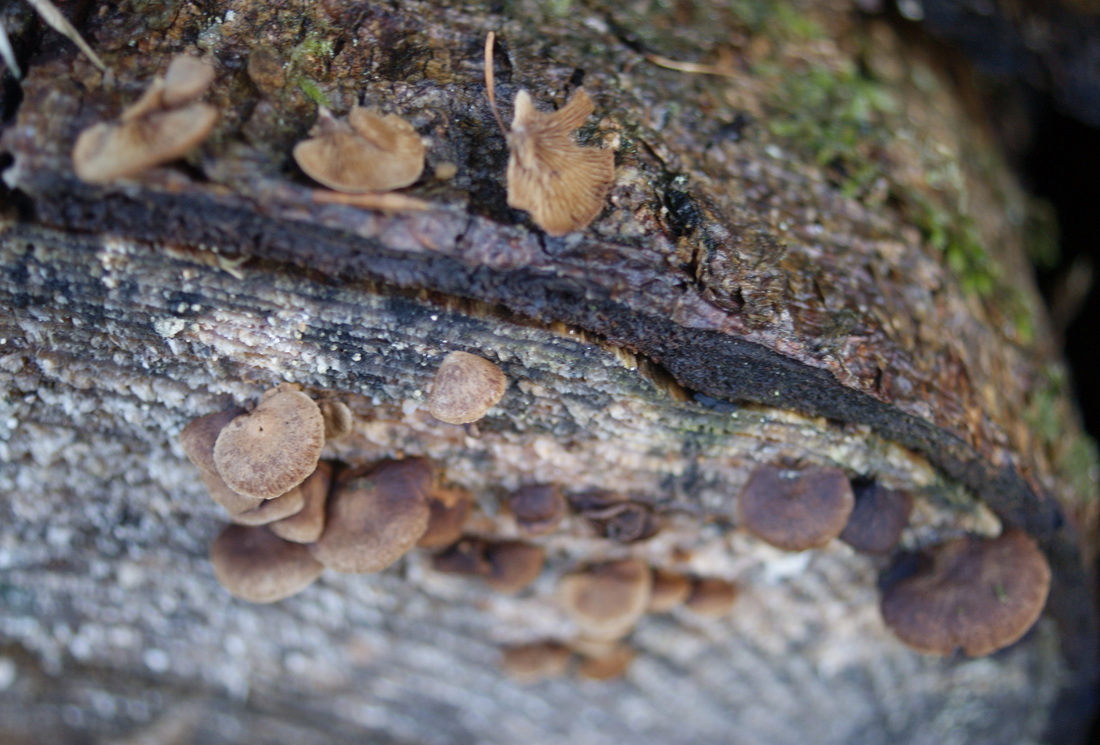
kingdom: Fungi
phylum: Basidiomycota
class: Agaricomycetes
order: Agaricales
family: Strophariaceae
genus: Deconica
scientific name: Deconica horizontalis
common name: ved-stråhat
